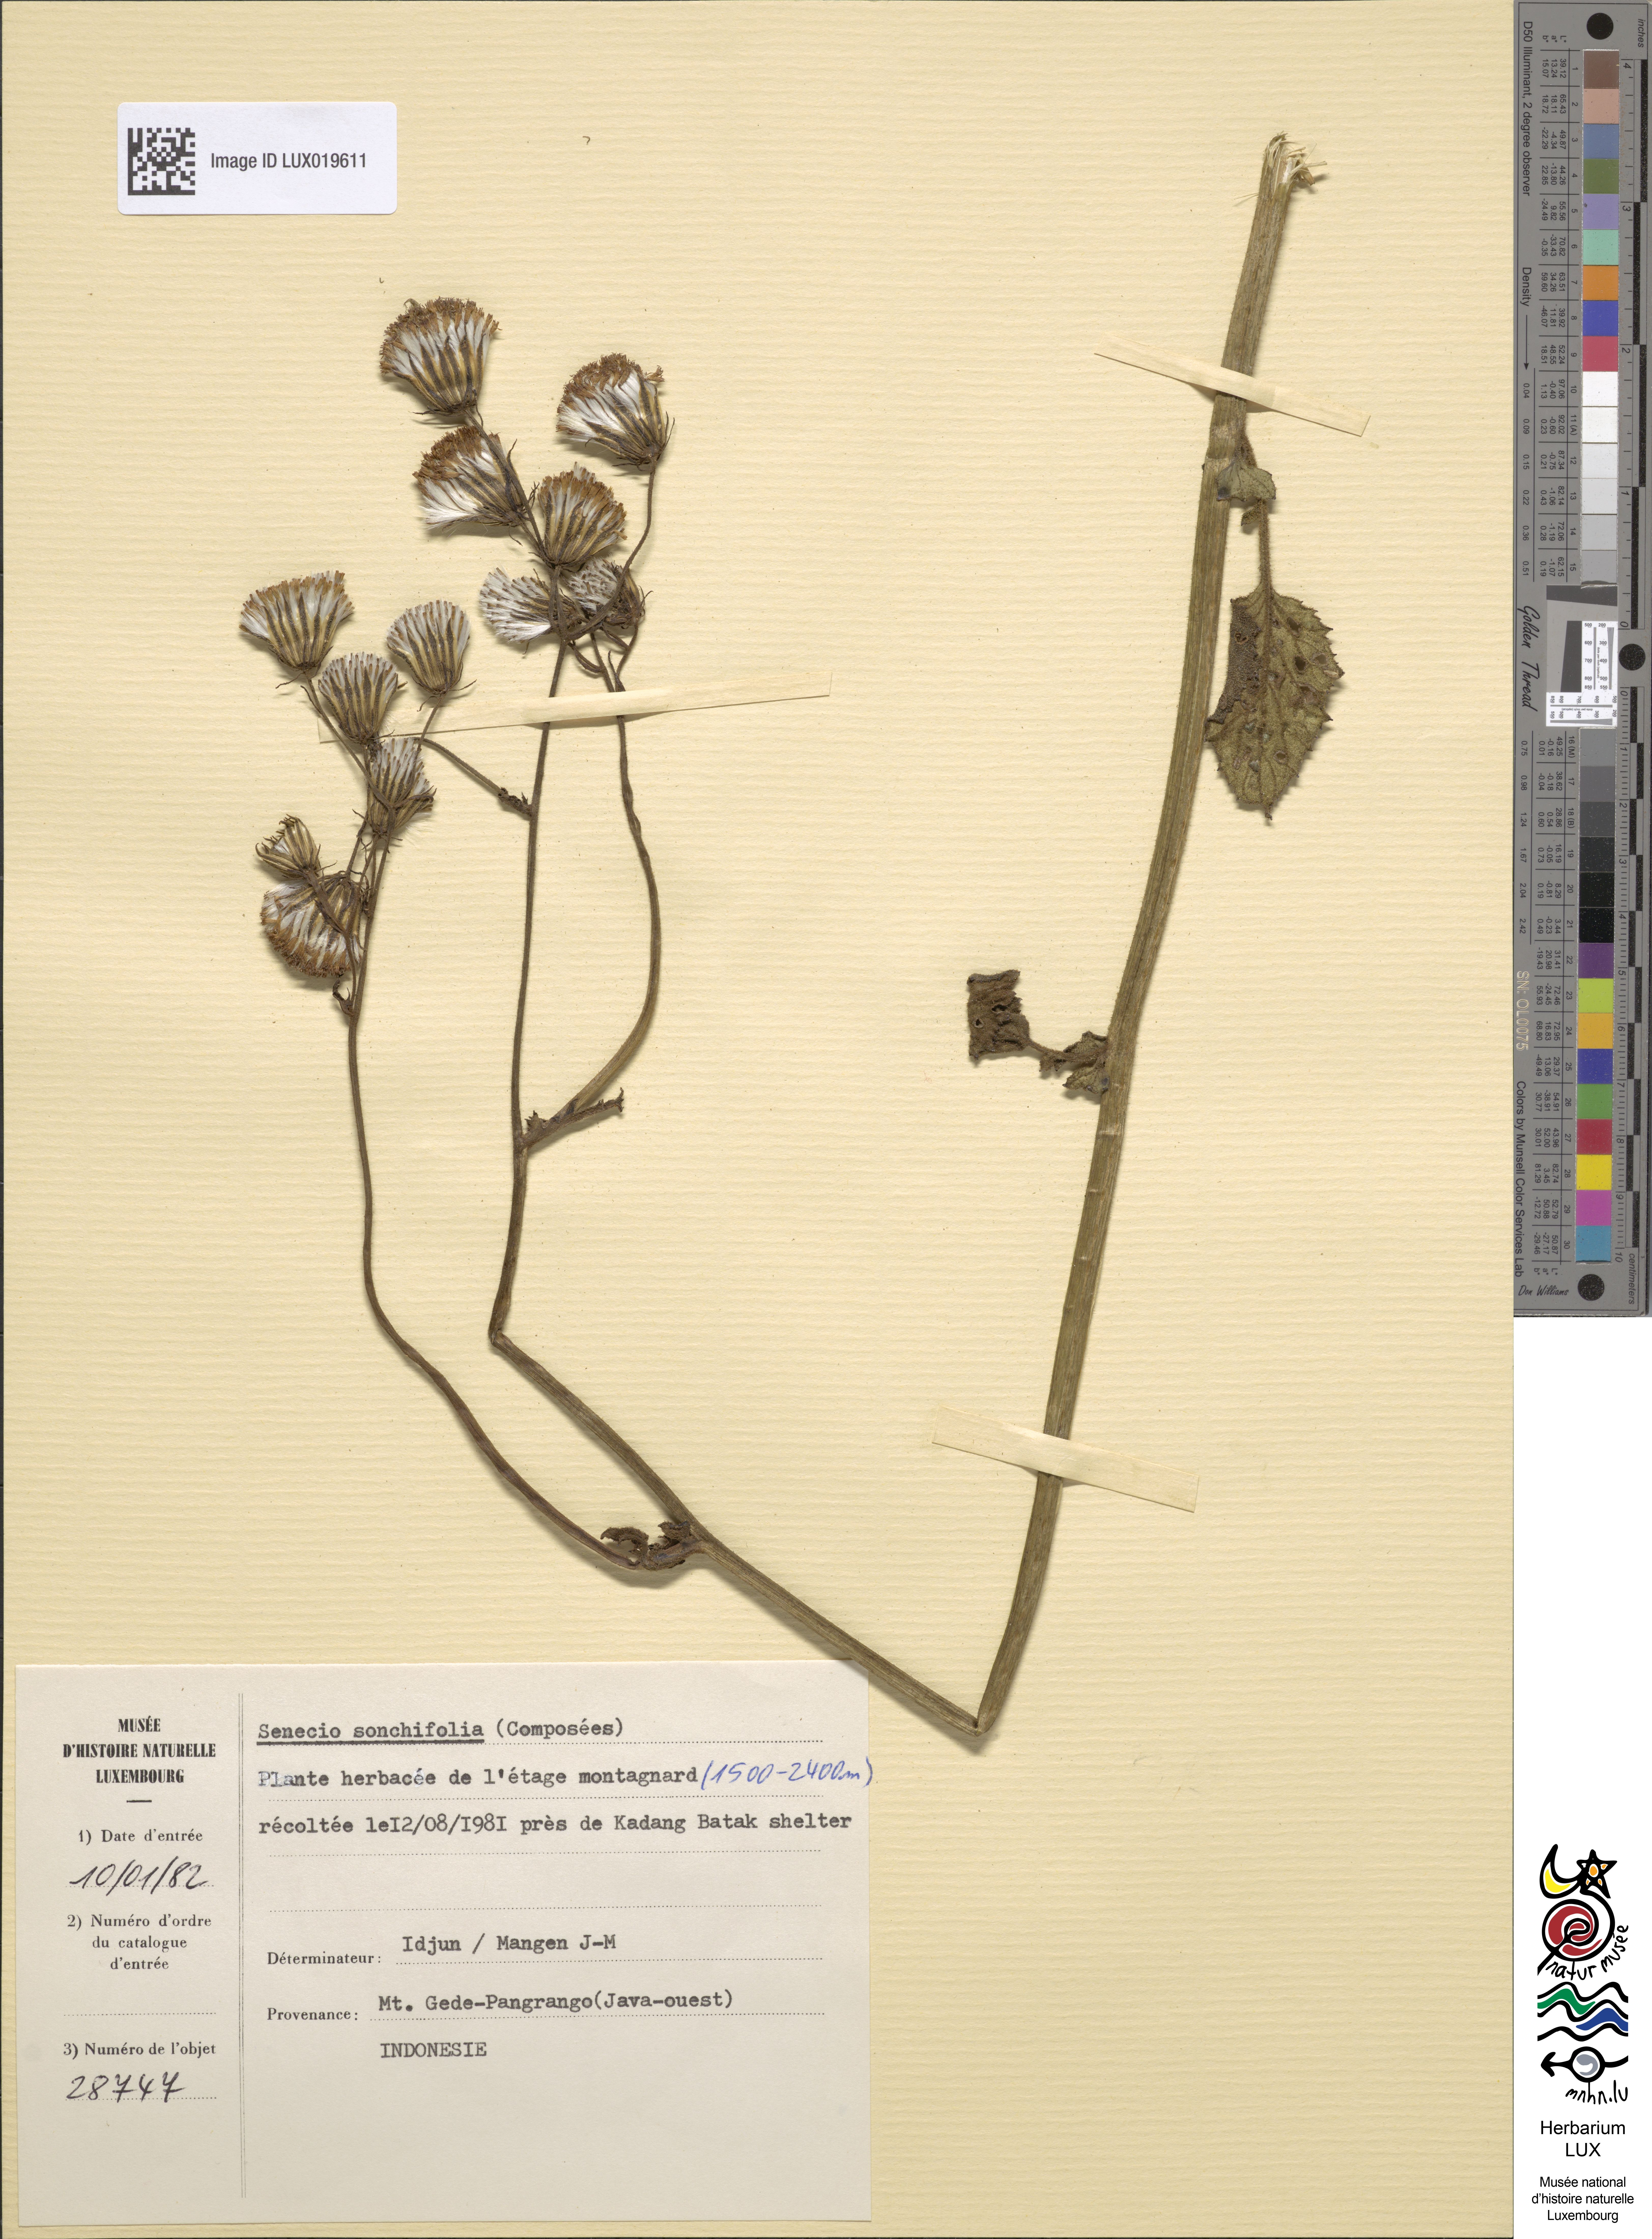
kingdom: Plantae
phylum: Tracheophyta
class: Magnoliopsida
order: Asterales
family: Asteraceae
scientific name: Asteraceae
